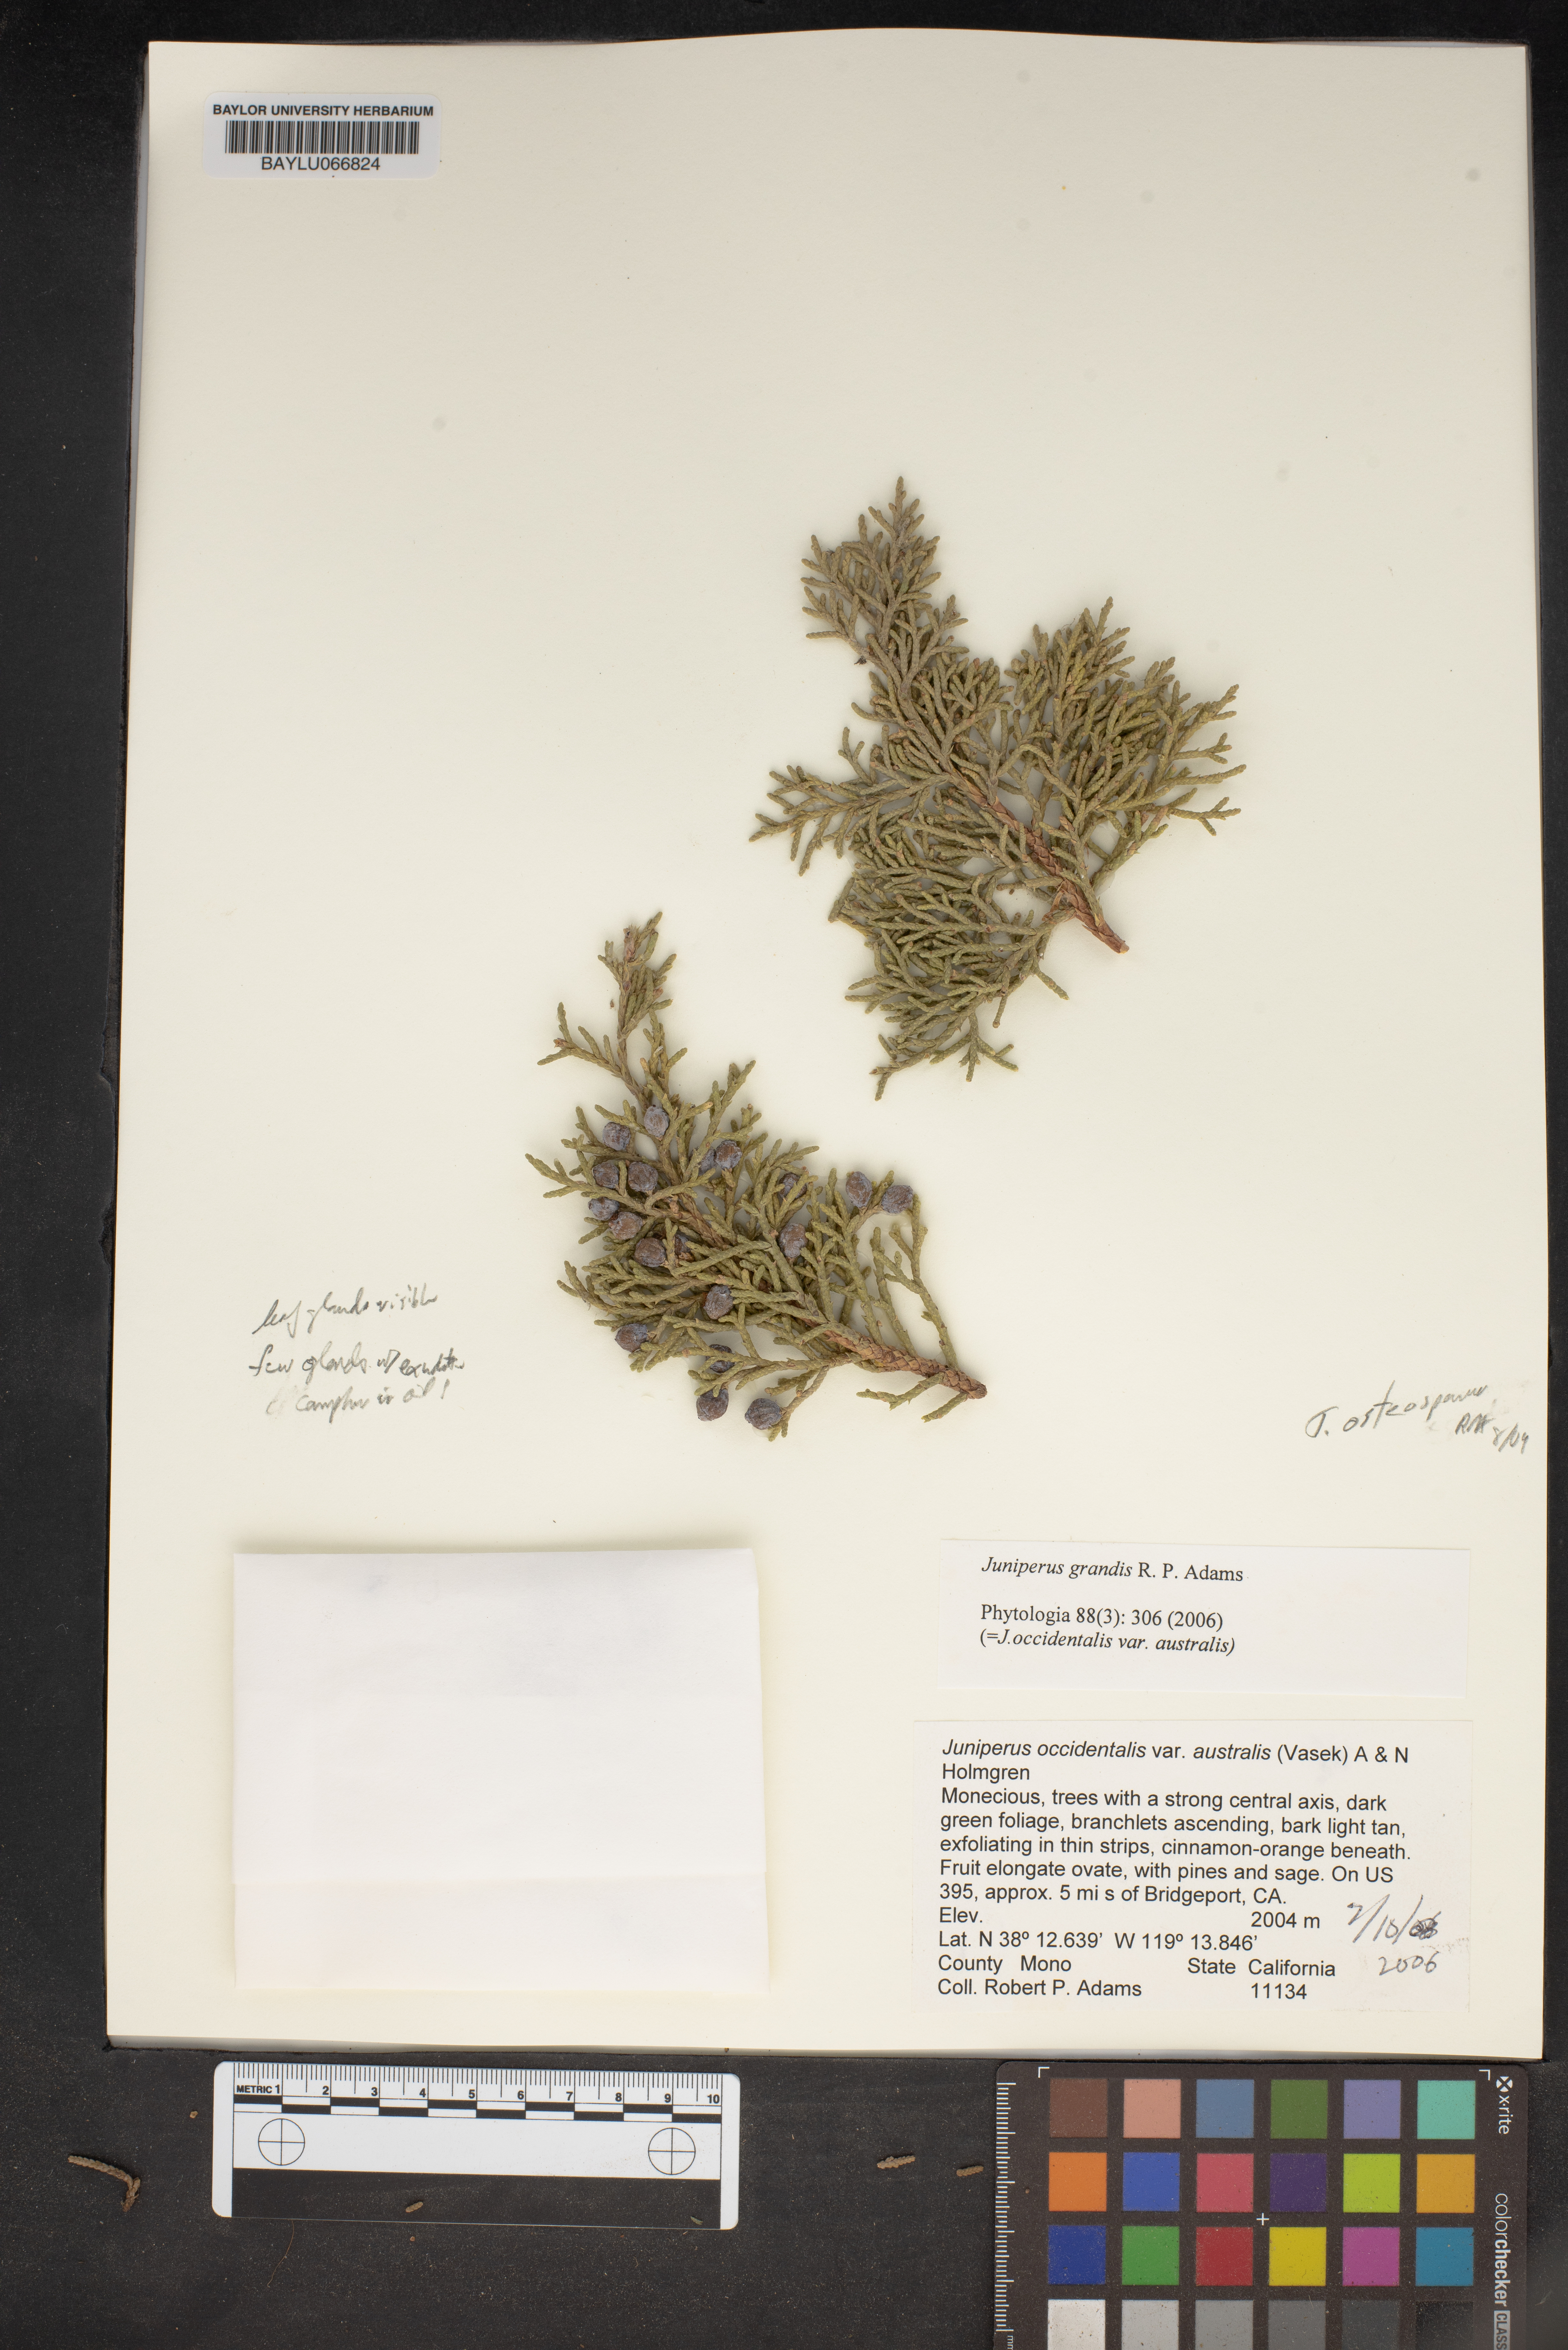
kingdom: Plantae
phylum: Tracheophyta
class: Pinopsida
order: Pinales
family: Cupressaceae
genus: Juniperus
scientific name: Juniperus occidentalis
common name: Western juniper
